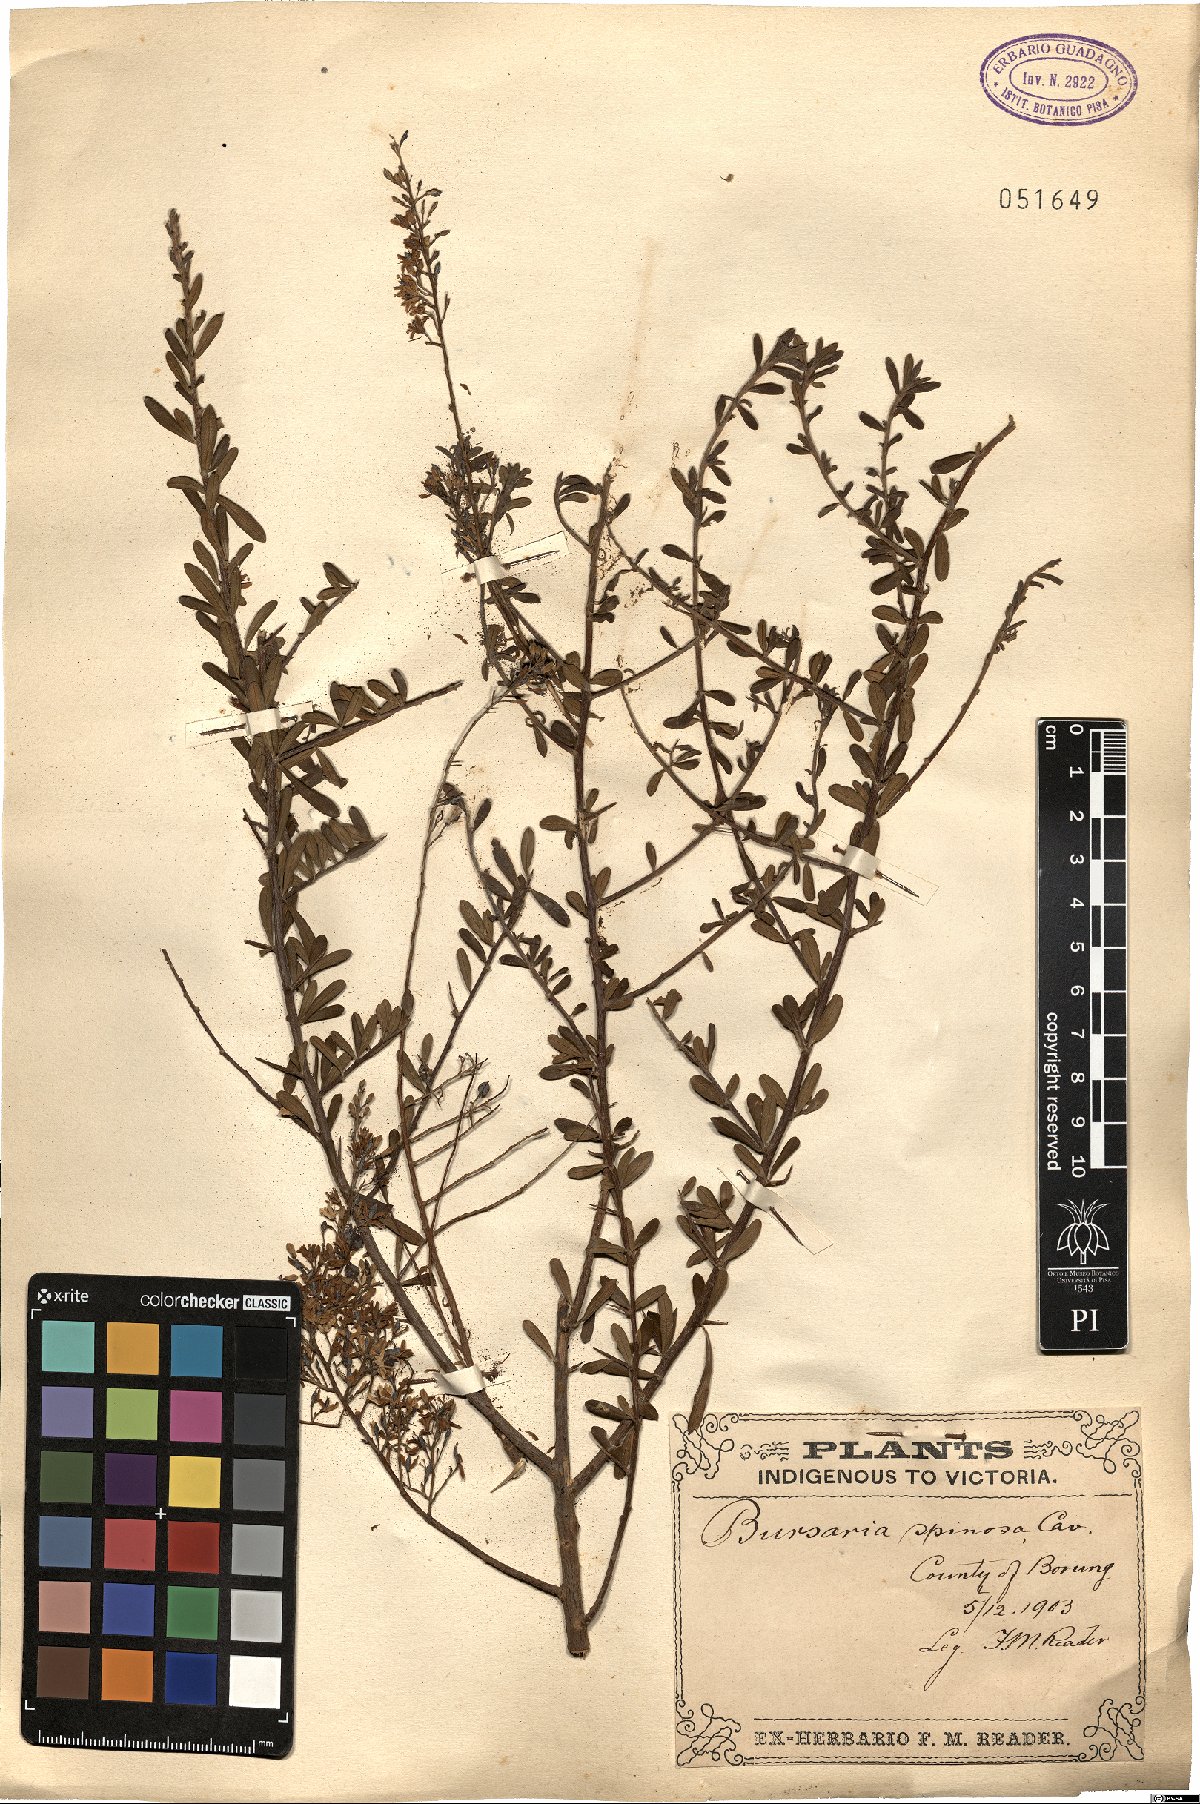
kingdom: Plantae
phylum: Tracheophyta
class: Magnoliopsida
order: Apiales
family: Pittosporaceae
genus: Bursaria
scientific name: Bursaria spinosa
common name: Australian blackthorn
